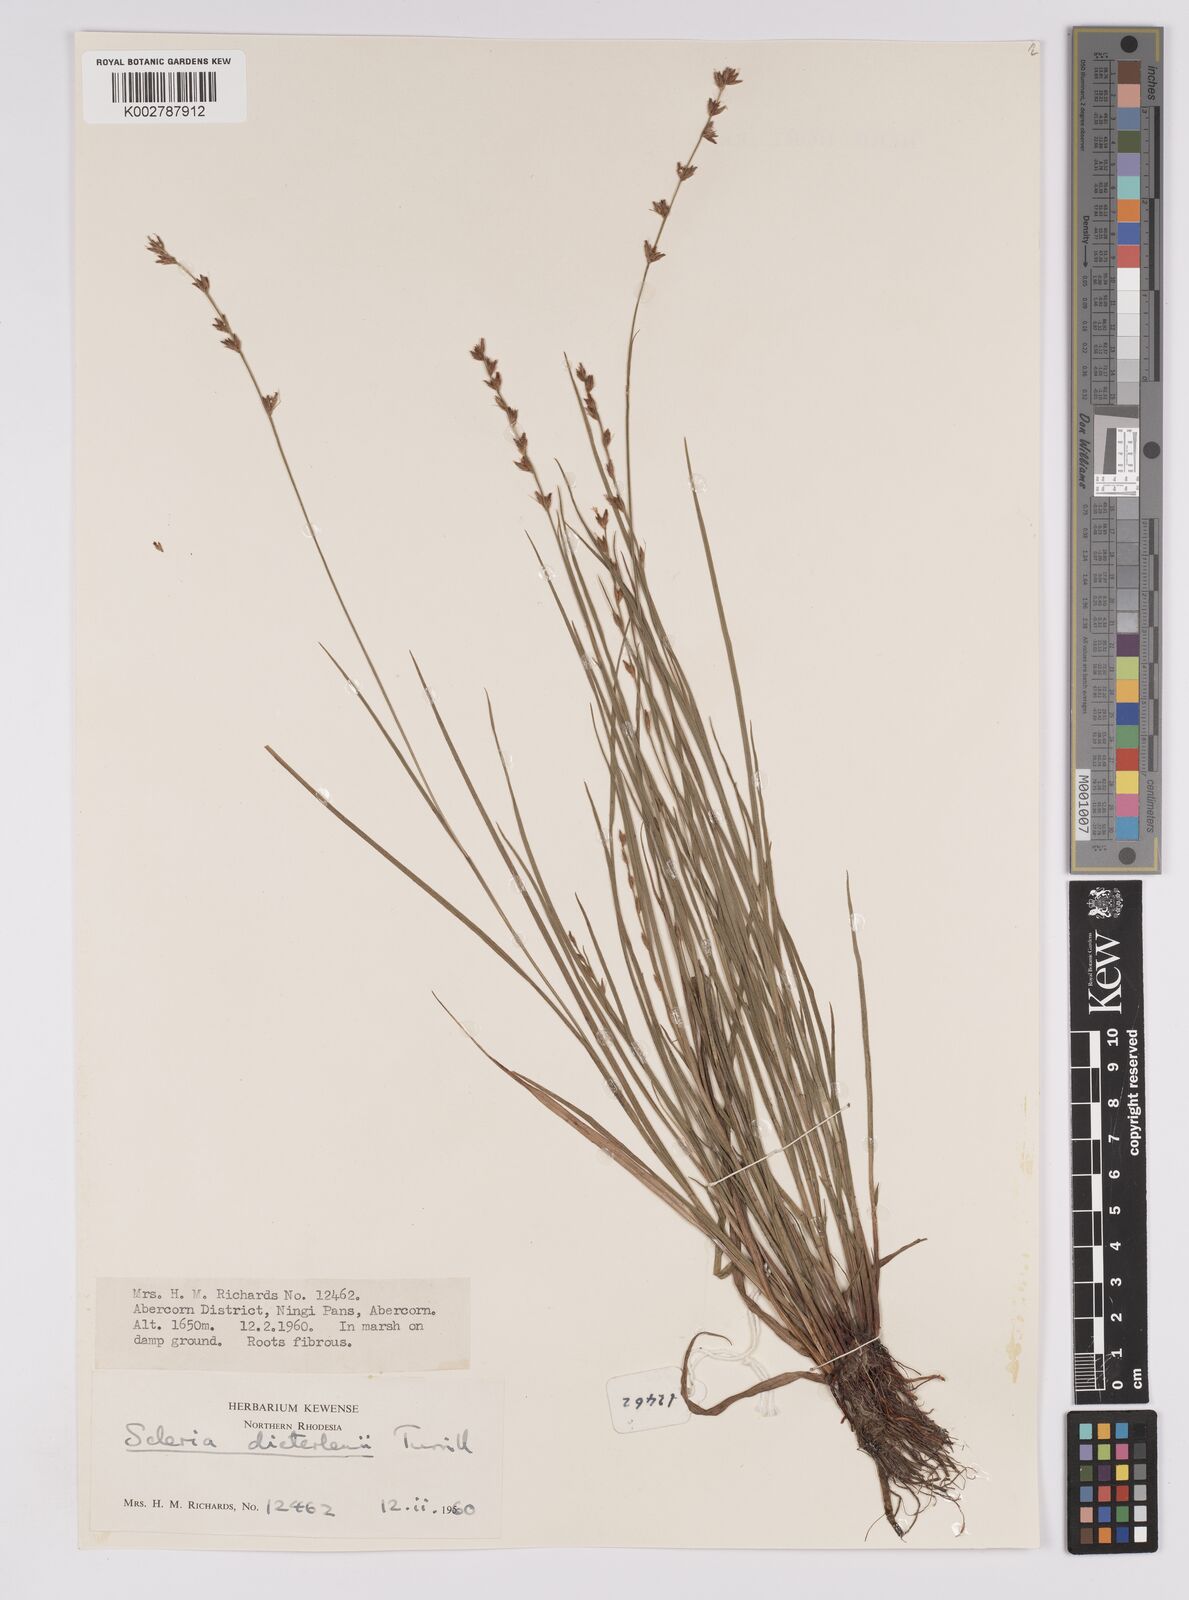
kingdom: Plantae
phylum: Tracheophyta
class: Liliopsida
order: Poales
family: Cyperaceae
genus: Scleria
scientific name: Scleria flexuosa
